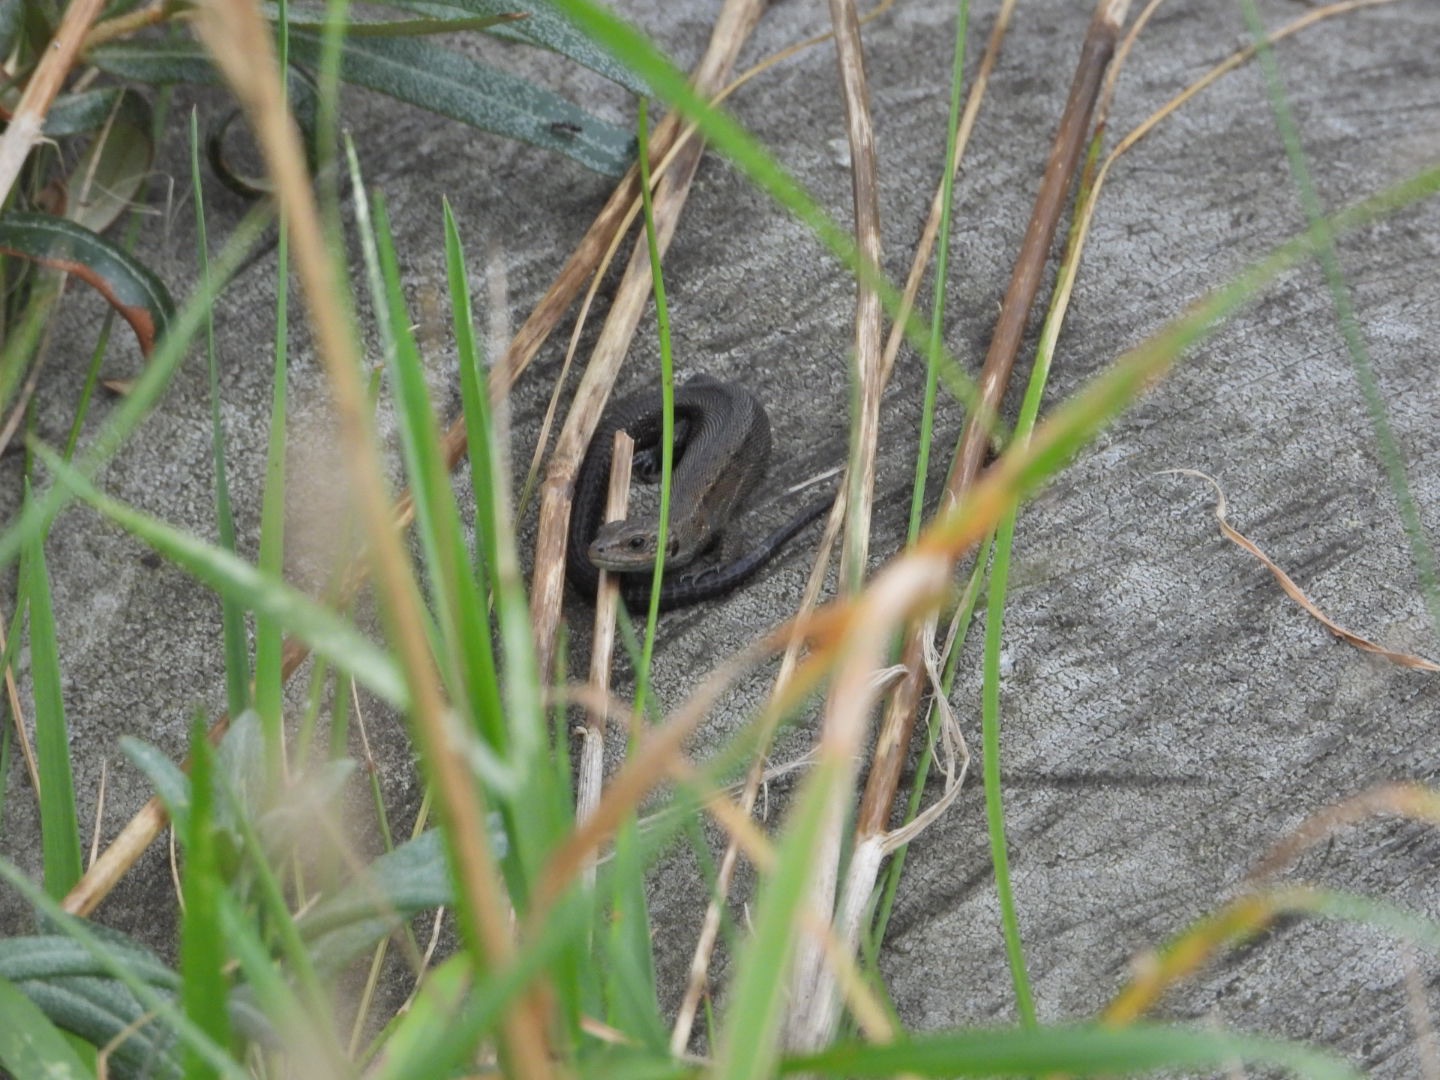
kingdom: Animalia
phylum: Chordata
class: Squamata
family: Lacertidae
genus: Zootoca
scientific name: Zootoca vivipara
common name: Skovfirben
